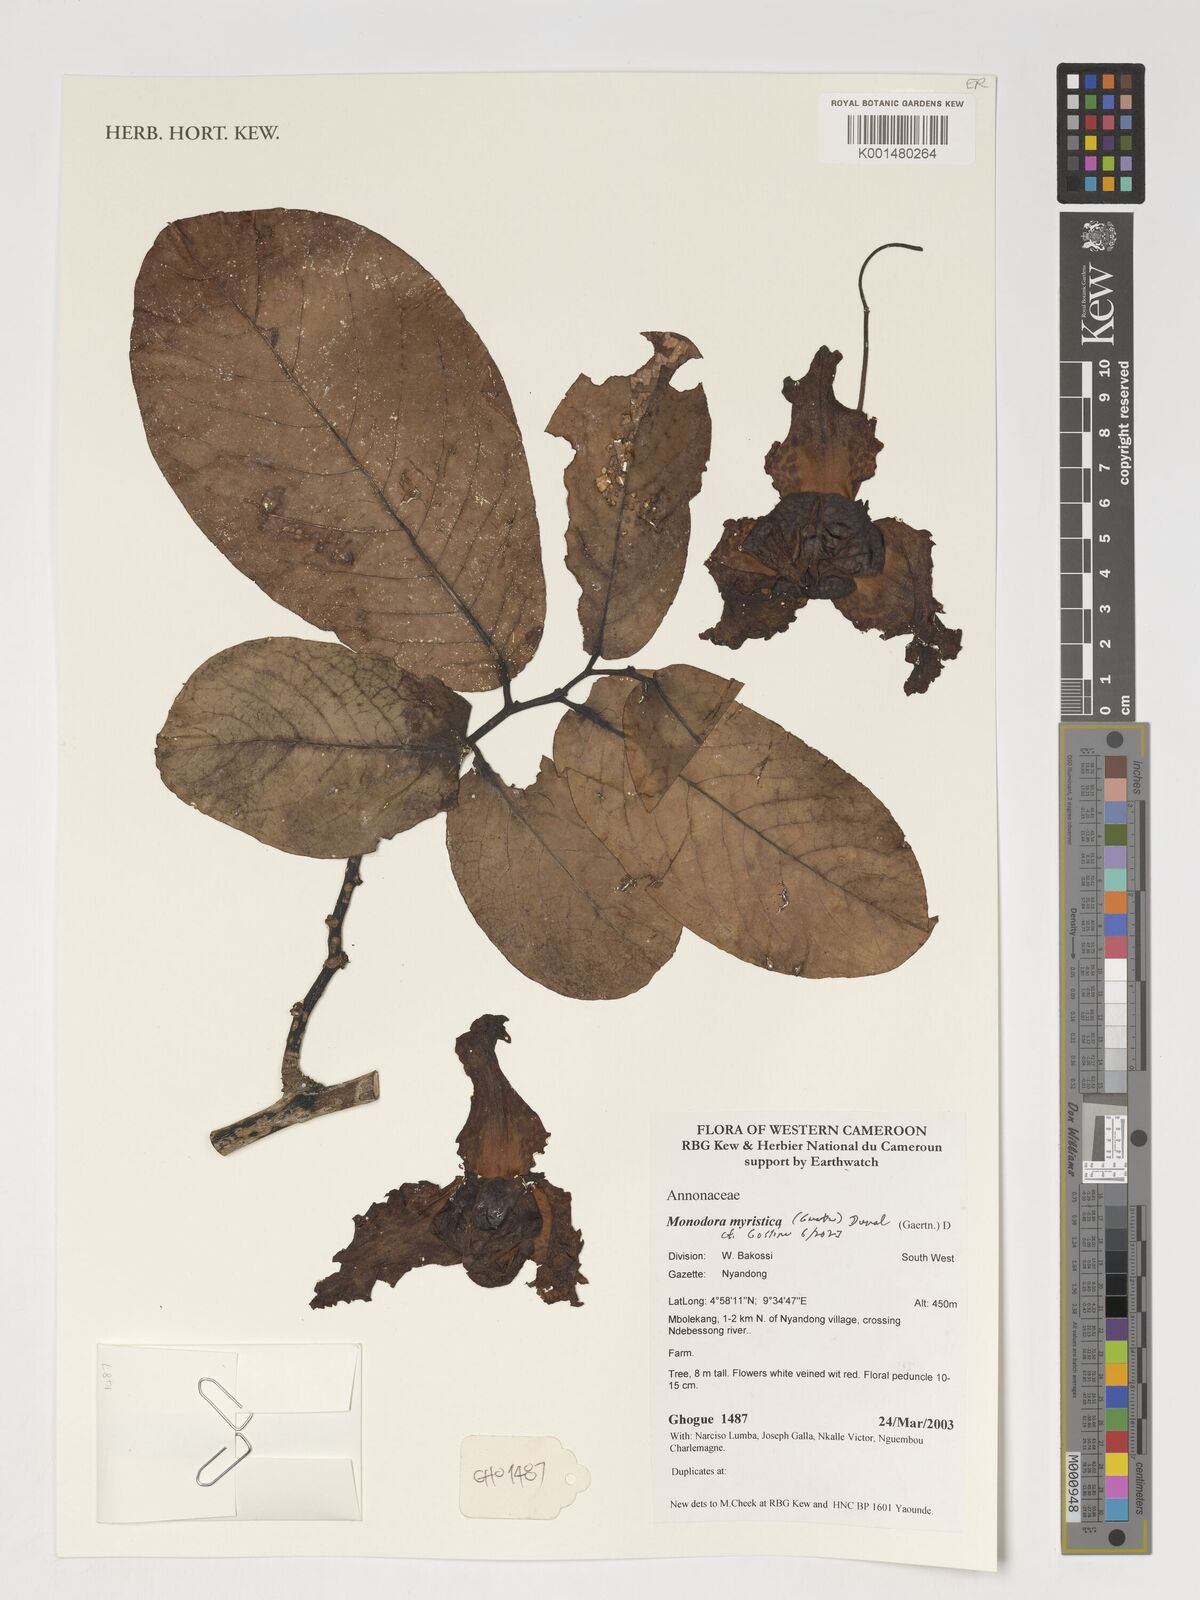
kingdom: Plantae
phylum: Tracheophyta
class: Magnoliopsida
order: Magnoliales
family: Annonaceae
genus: Monodora
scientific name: Monodora myristica
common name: African nutmeg
